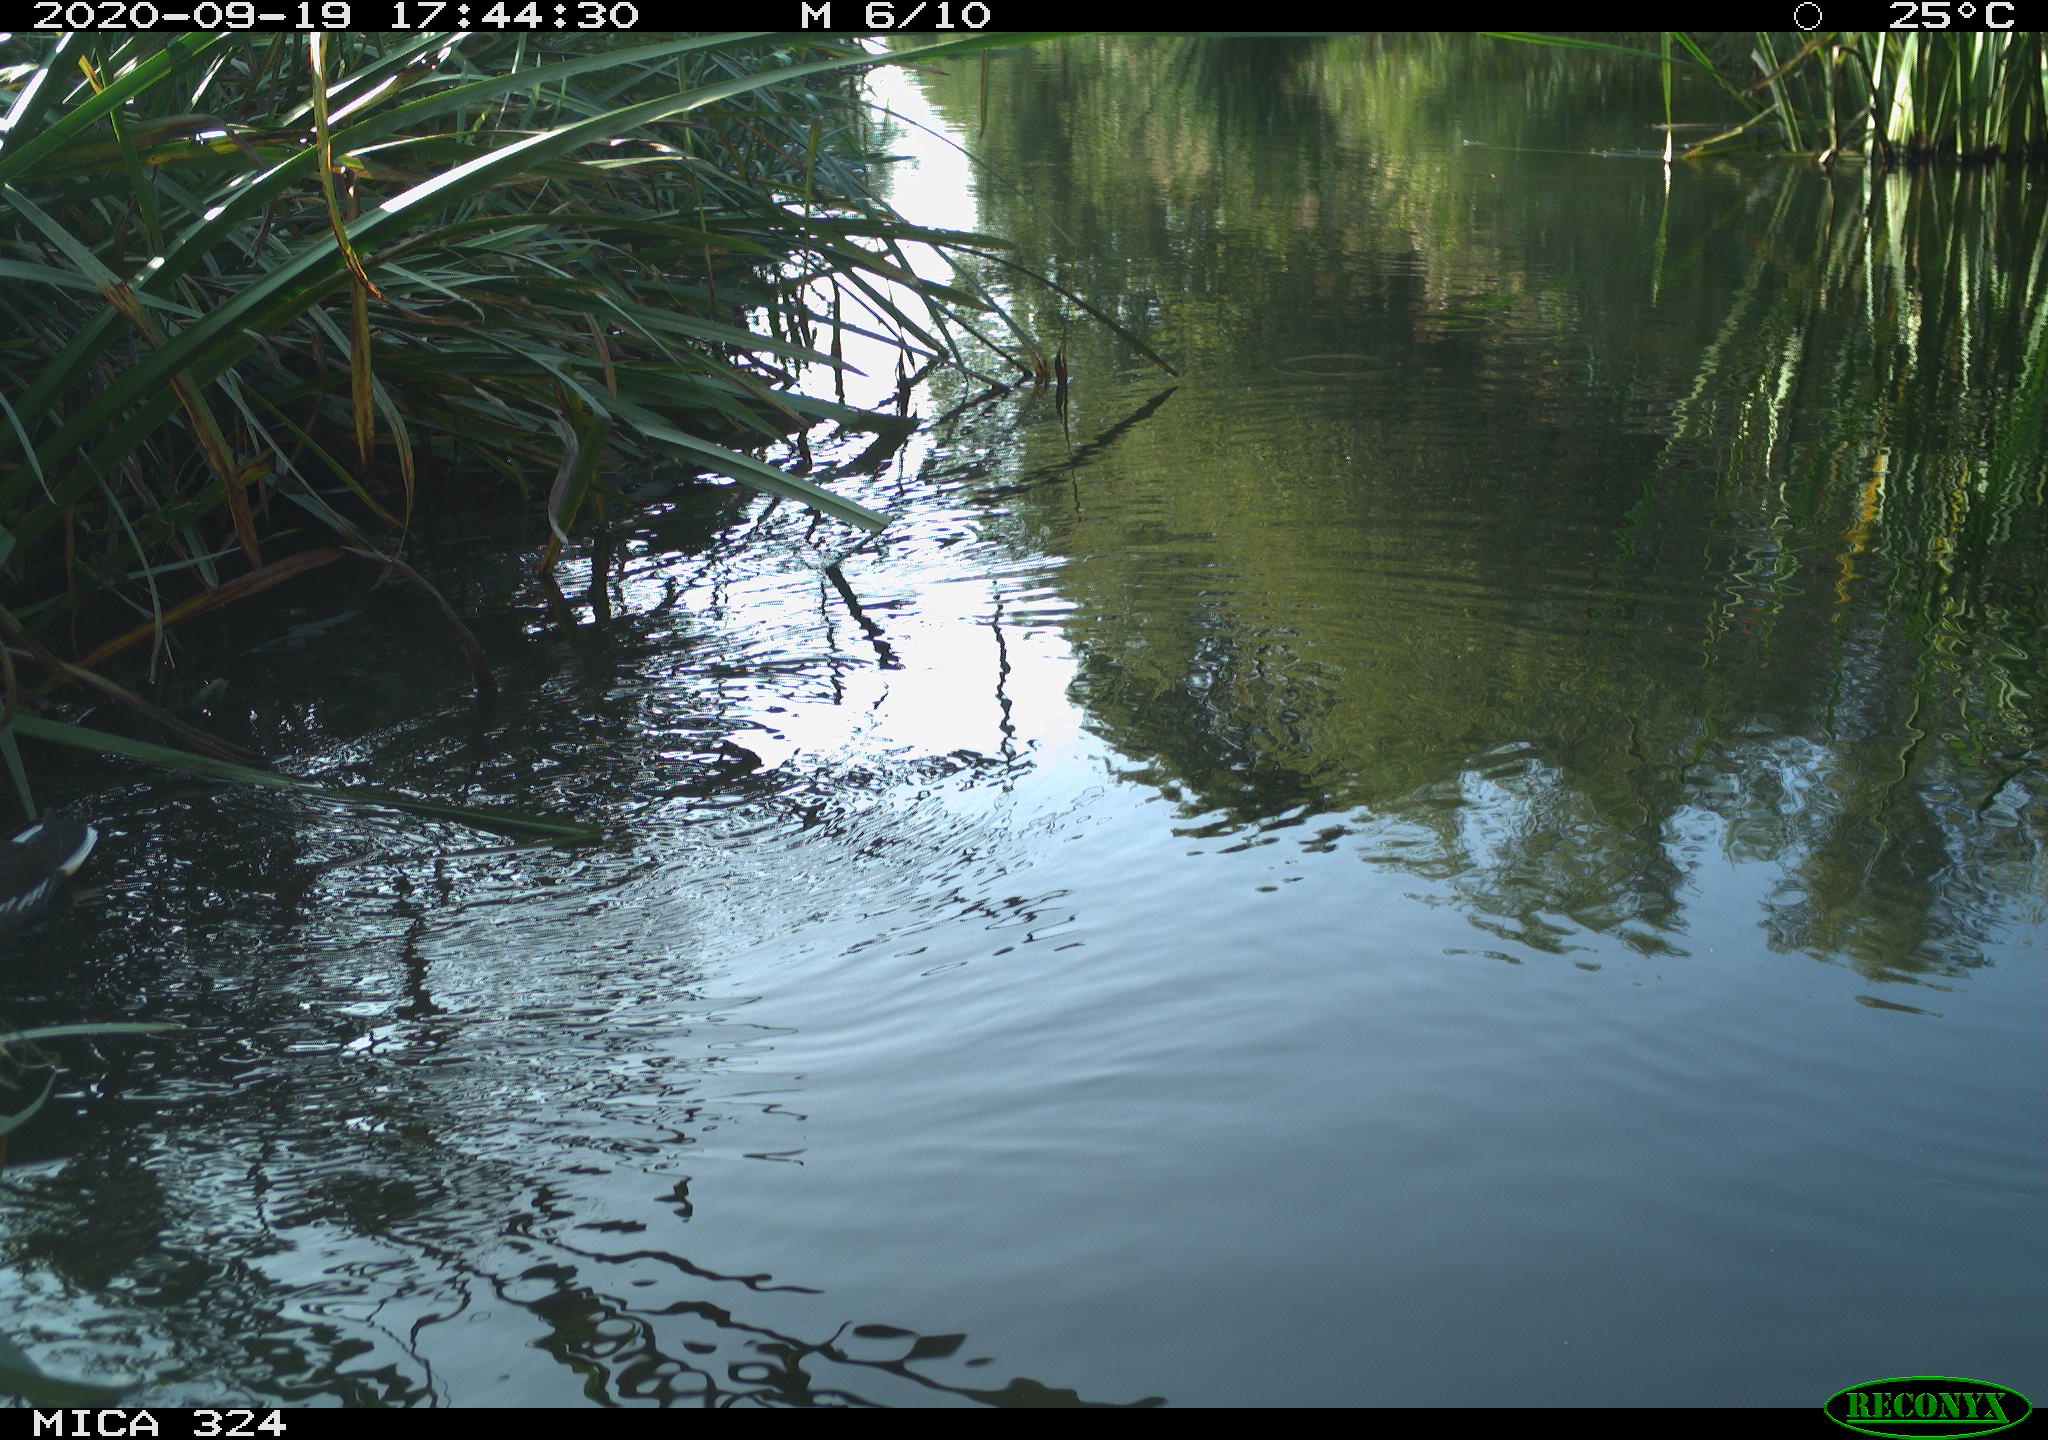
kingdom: Animalia
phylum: Chordata
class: Aves
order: Gruiformes
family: Rallidae
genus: Gallinula
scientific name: Gallinula chloropus
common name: Common moorhen
